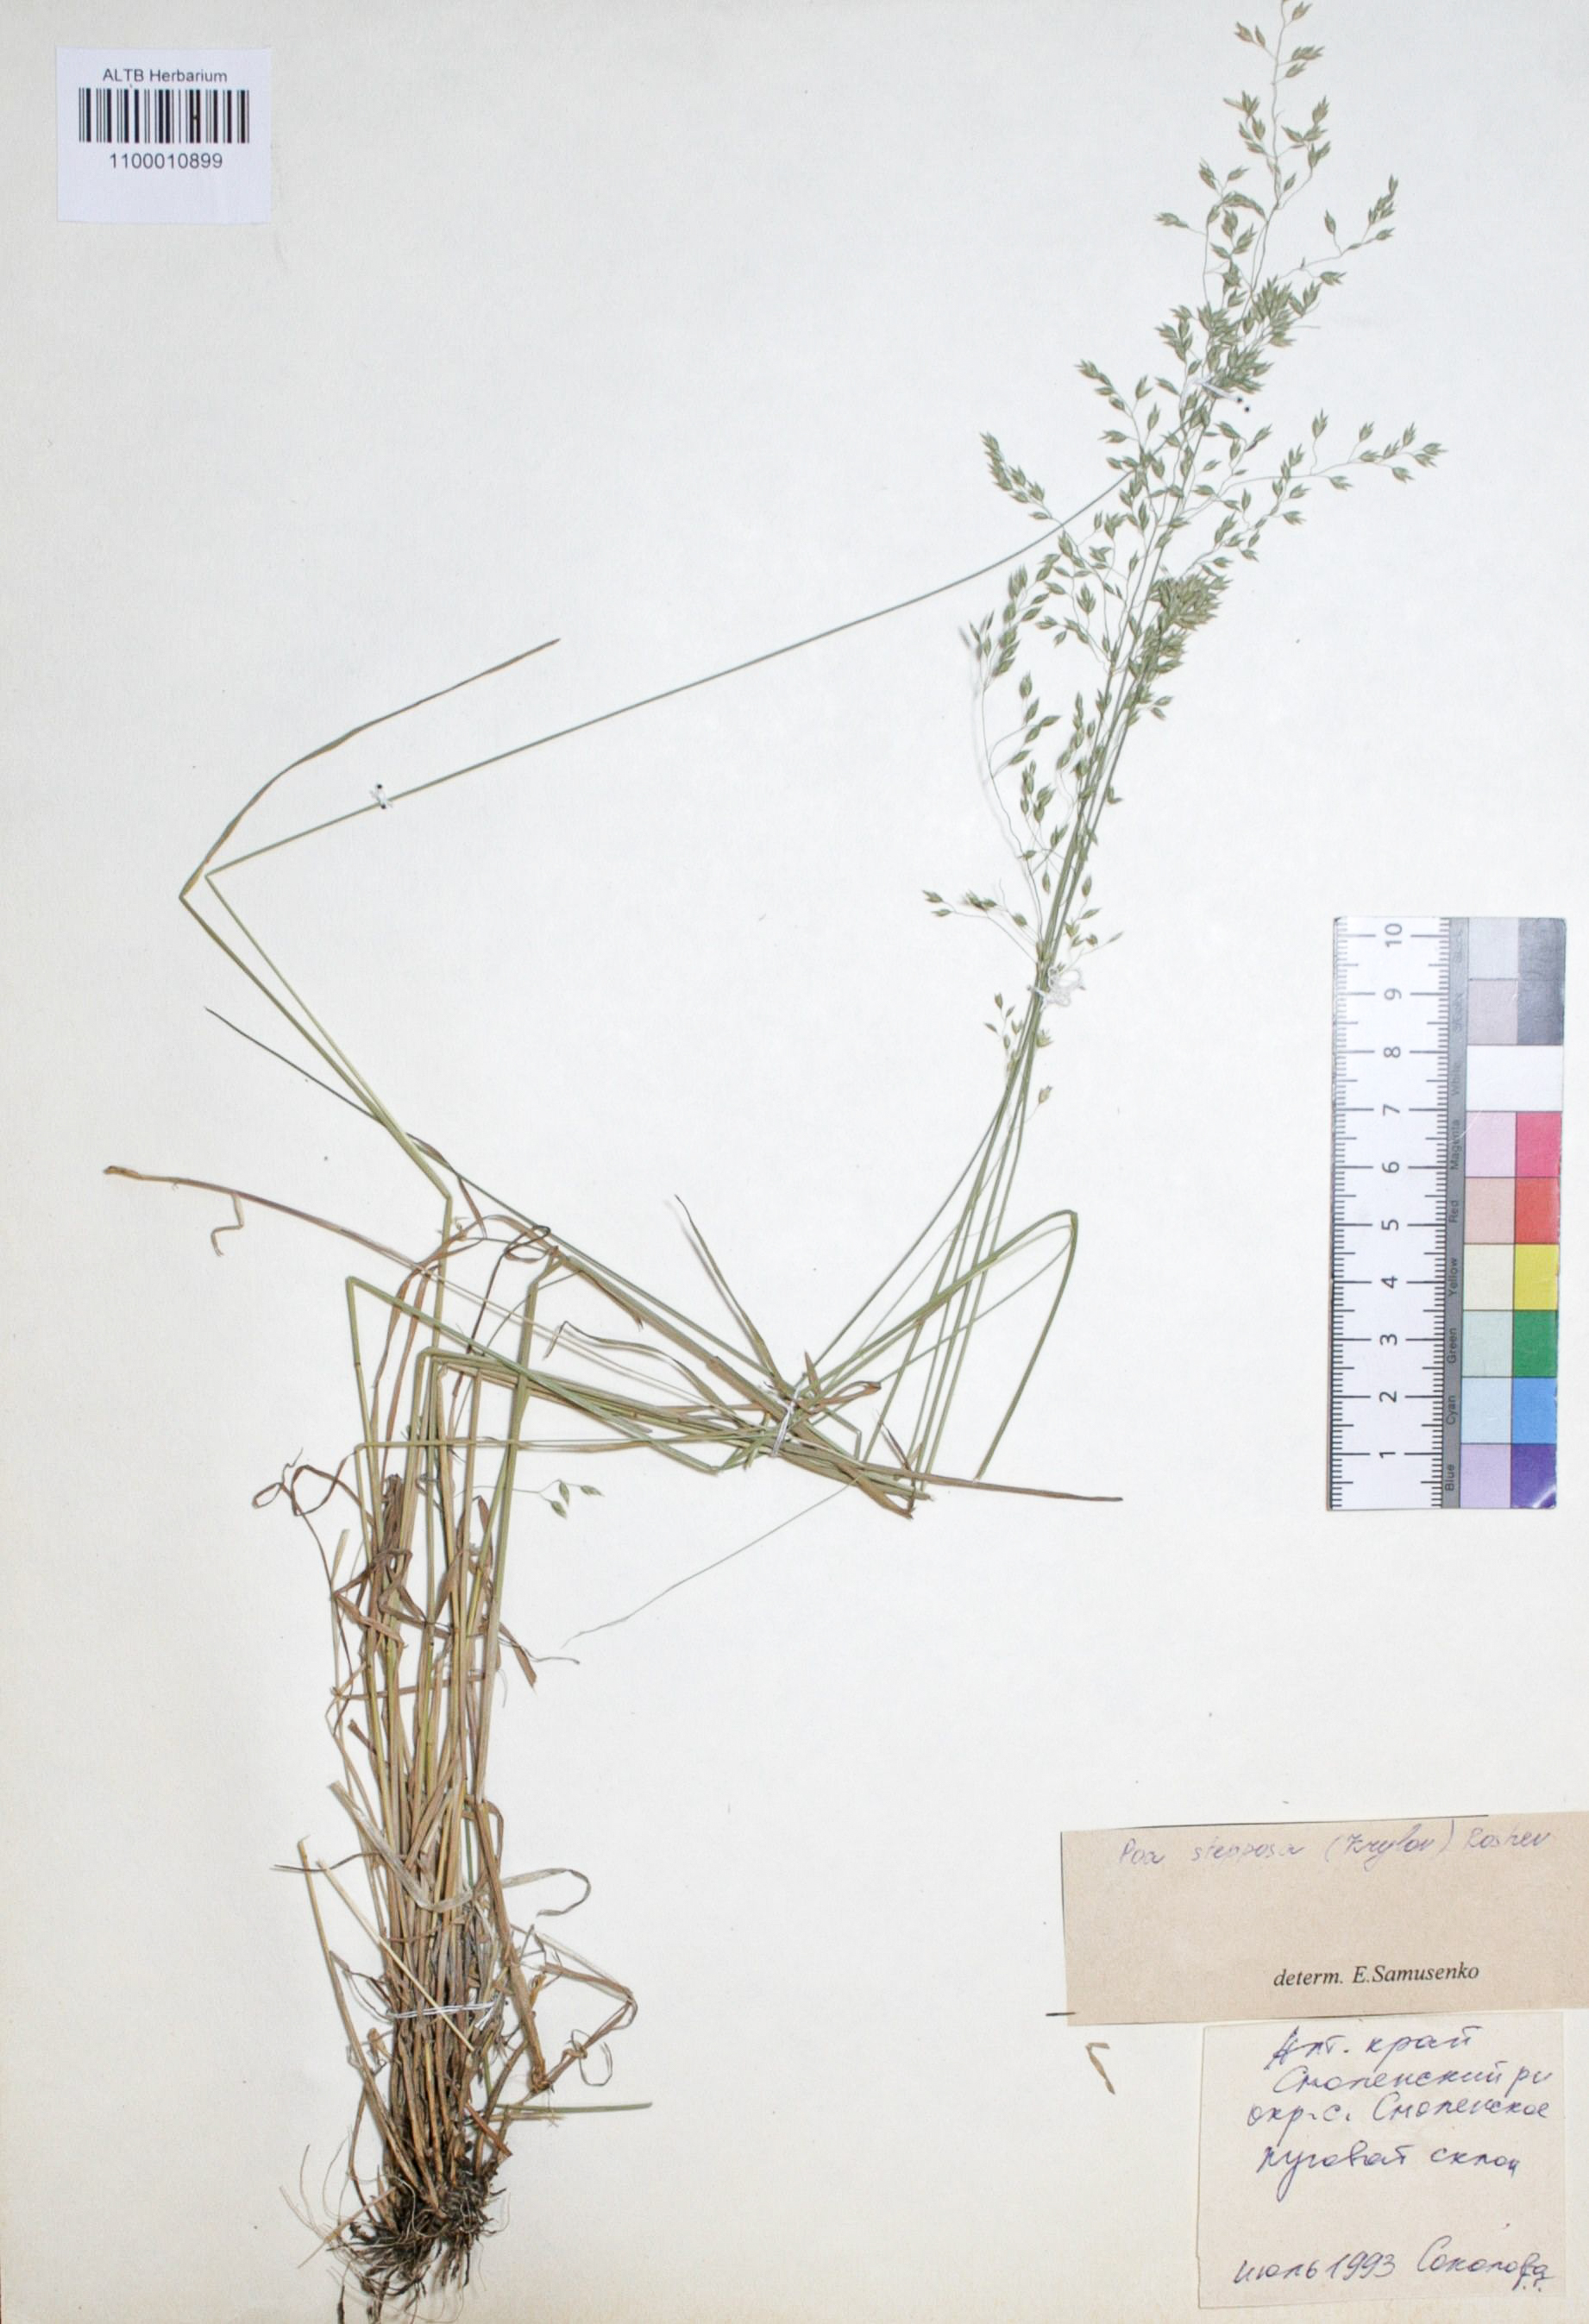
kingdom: Plantae
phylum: Tracheophyta
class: Liliopsida
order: Poales
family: Poaceae
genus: Poa
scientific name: Poa versicolor
